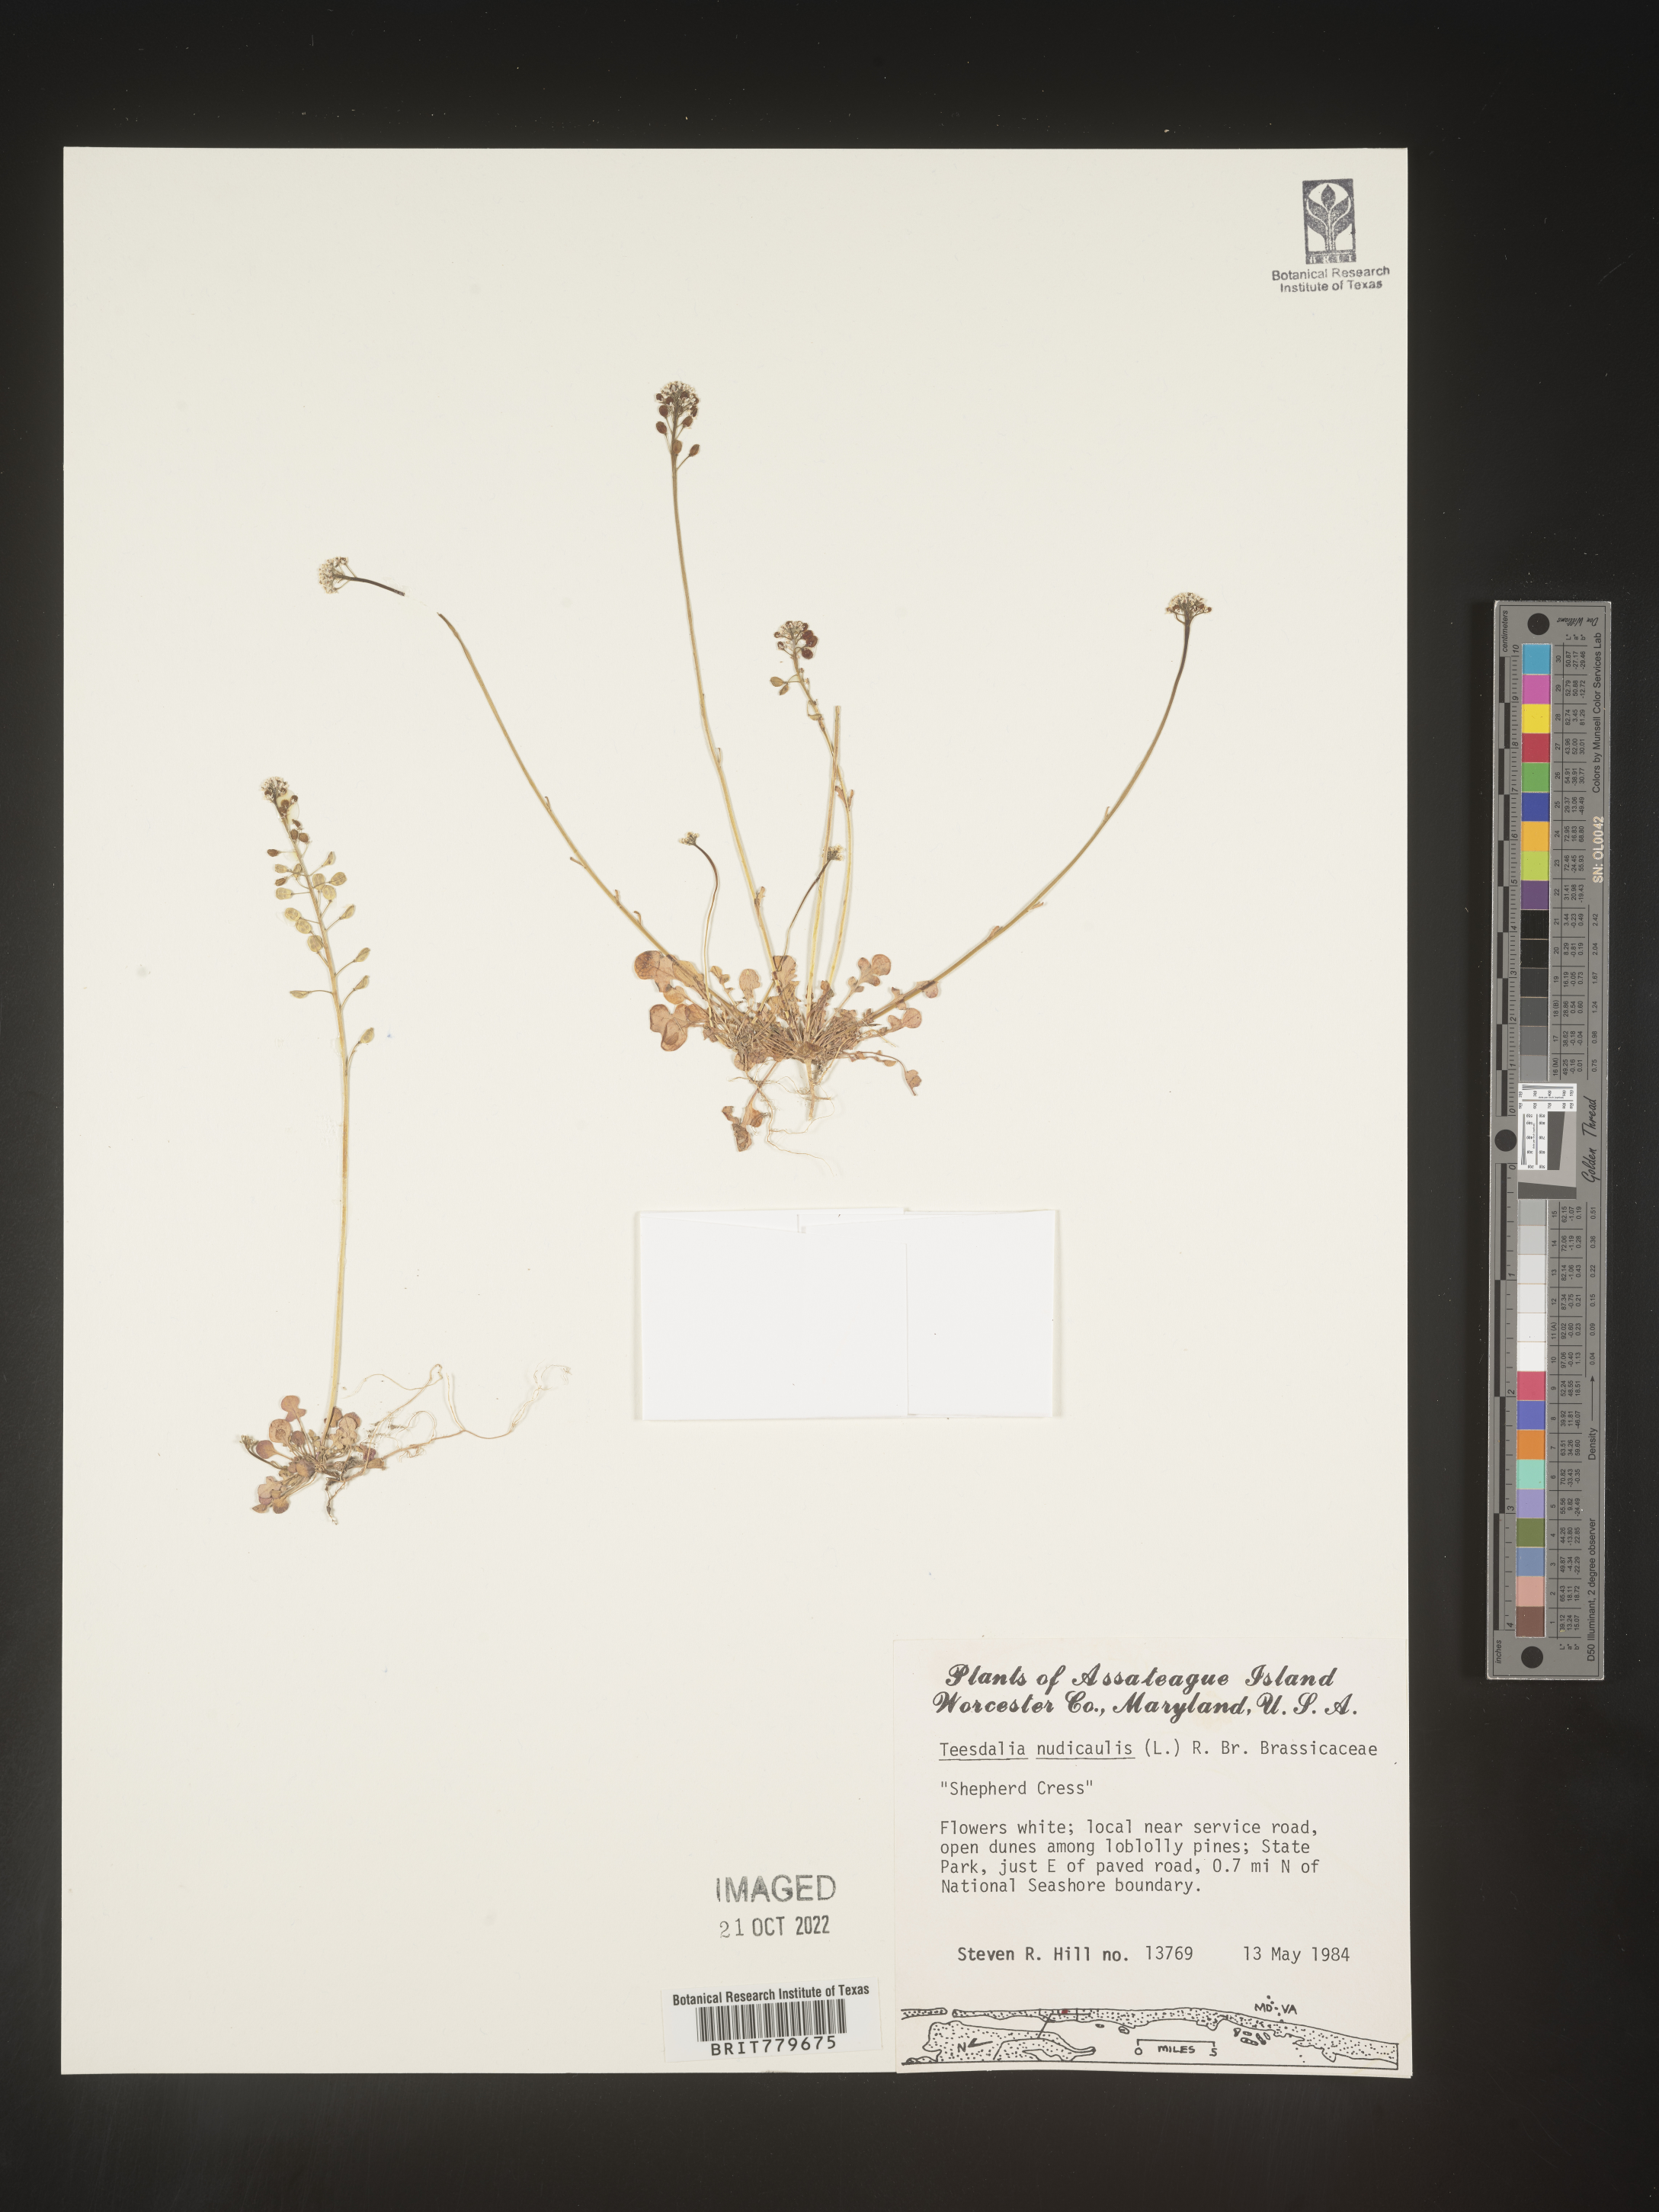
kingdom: Plantae
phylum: Tracheophyta
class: Magnoliopsida
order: Brassicales
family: Brassicaceae
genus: Teesdalia
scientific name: Teesdalia
